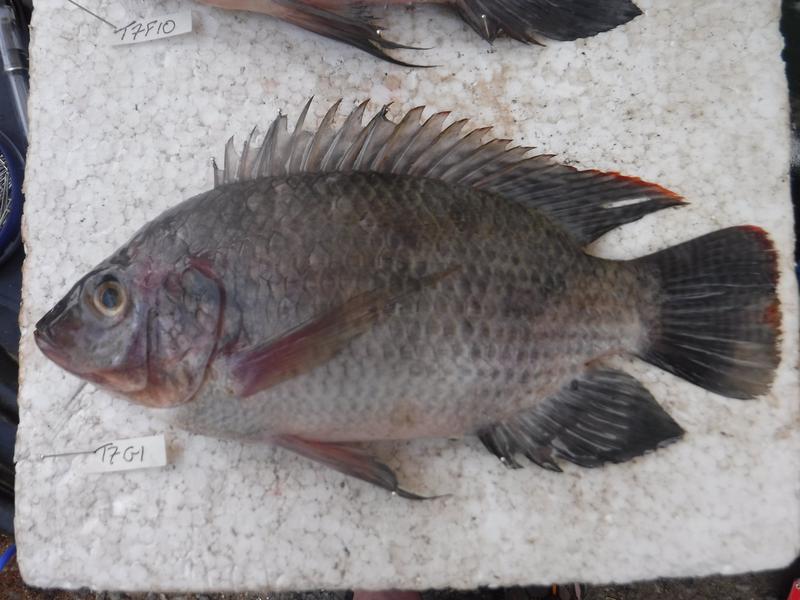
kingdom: Animalia
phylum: Chordata
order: Perciformes
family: Cichlidae
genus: Oreochromis
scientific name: Oreochromis urolepis
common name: Wami tilapia
